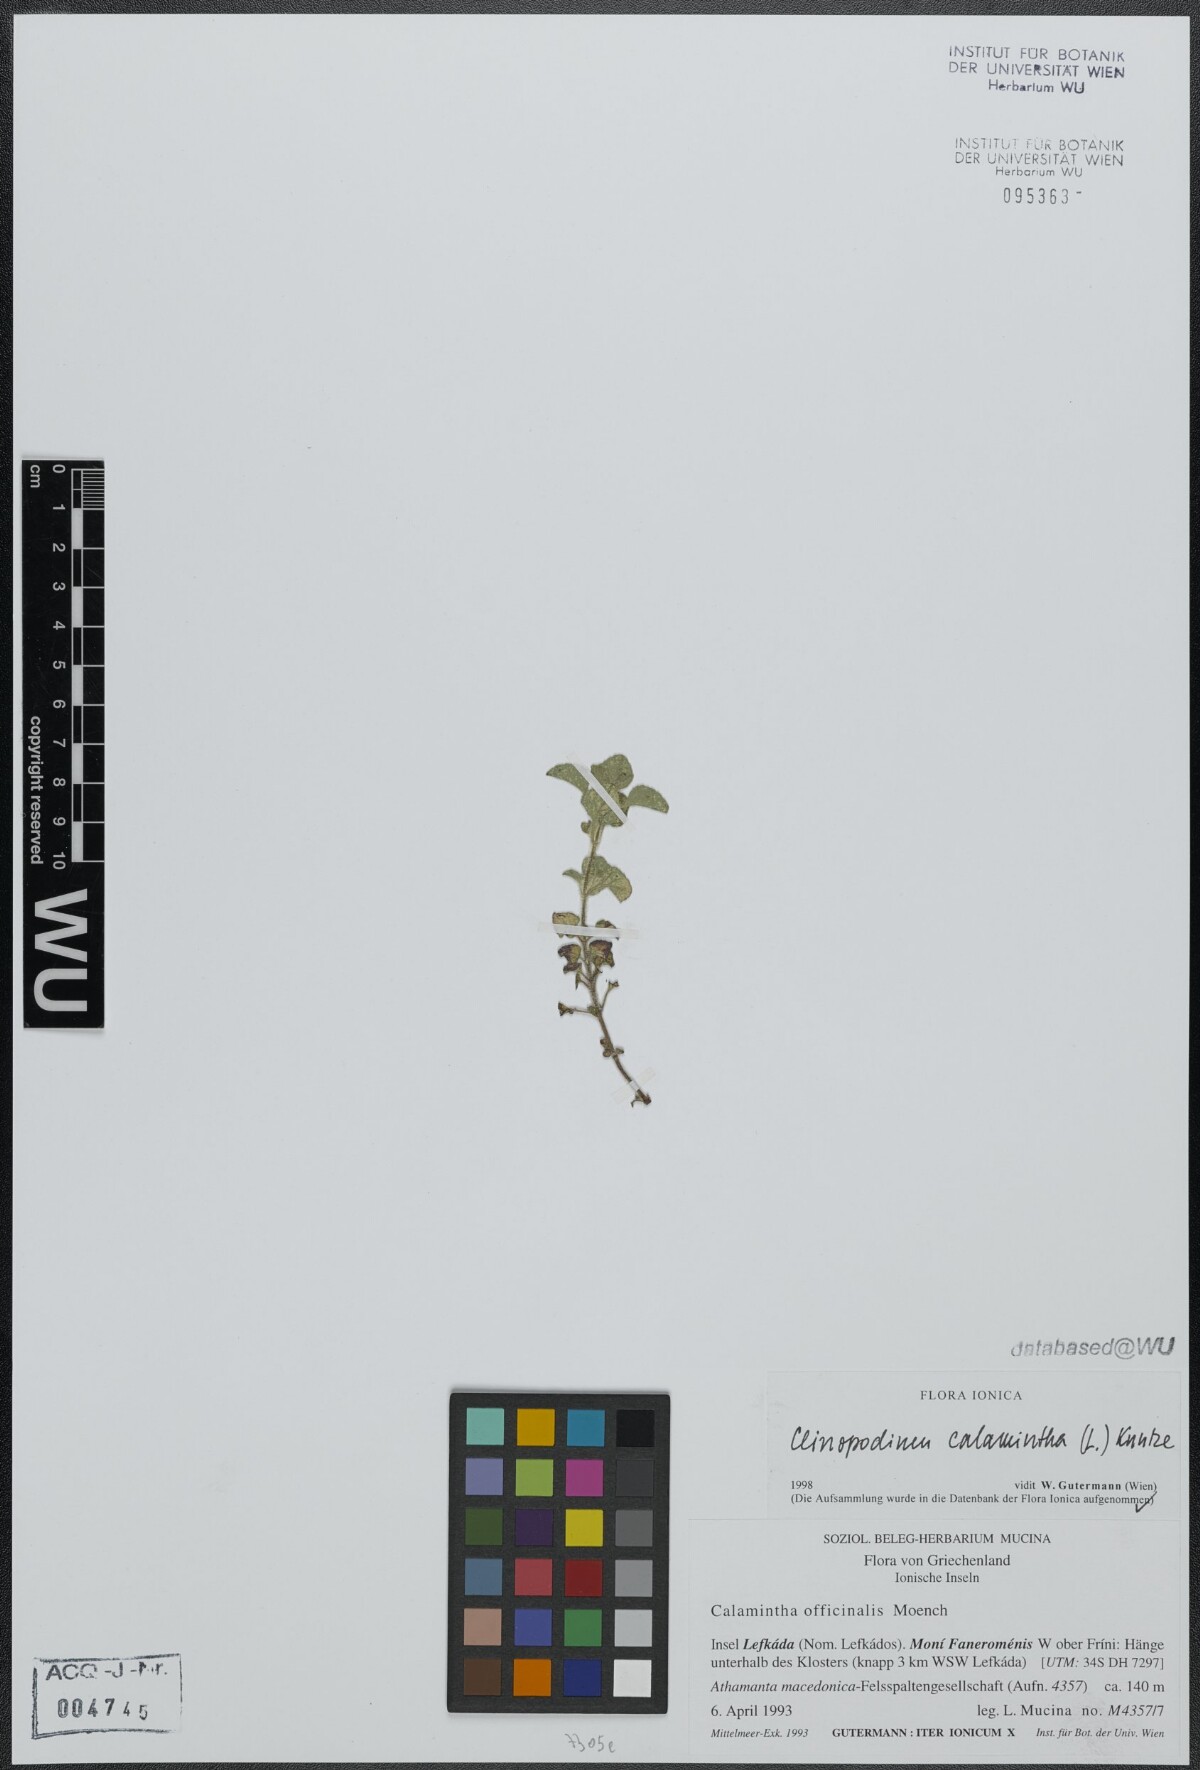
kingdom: Plantae
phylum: Tracheophyta
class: Magnoliopsida
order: Lamiales
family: Lamiaceae
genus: Clinopodium
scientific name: Clinopodium nepeta
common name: Lesser calamint
